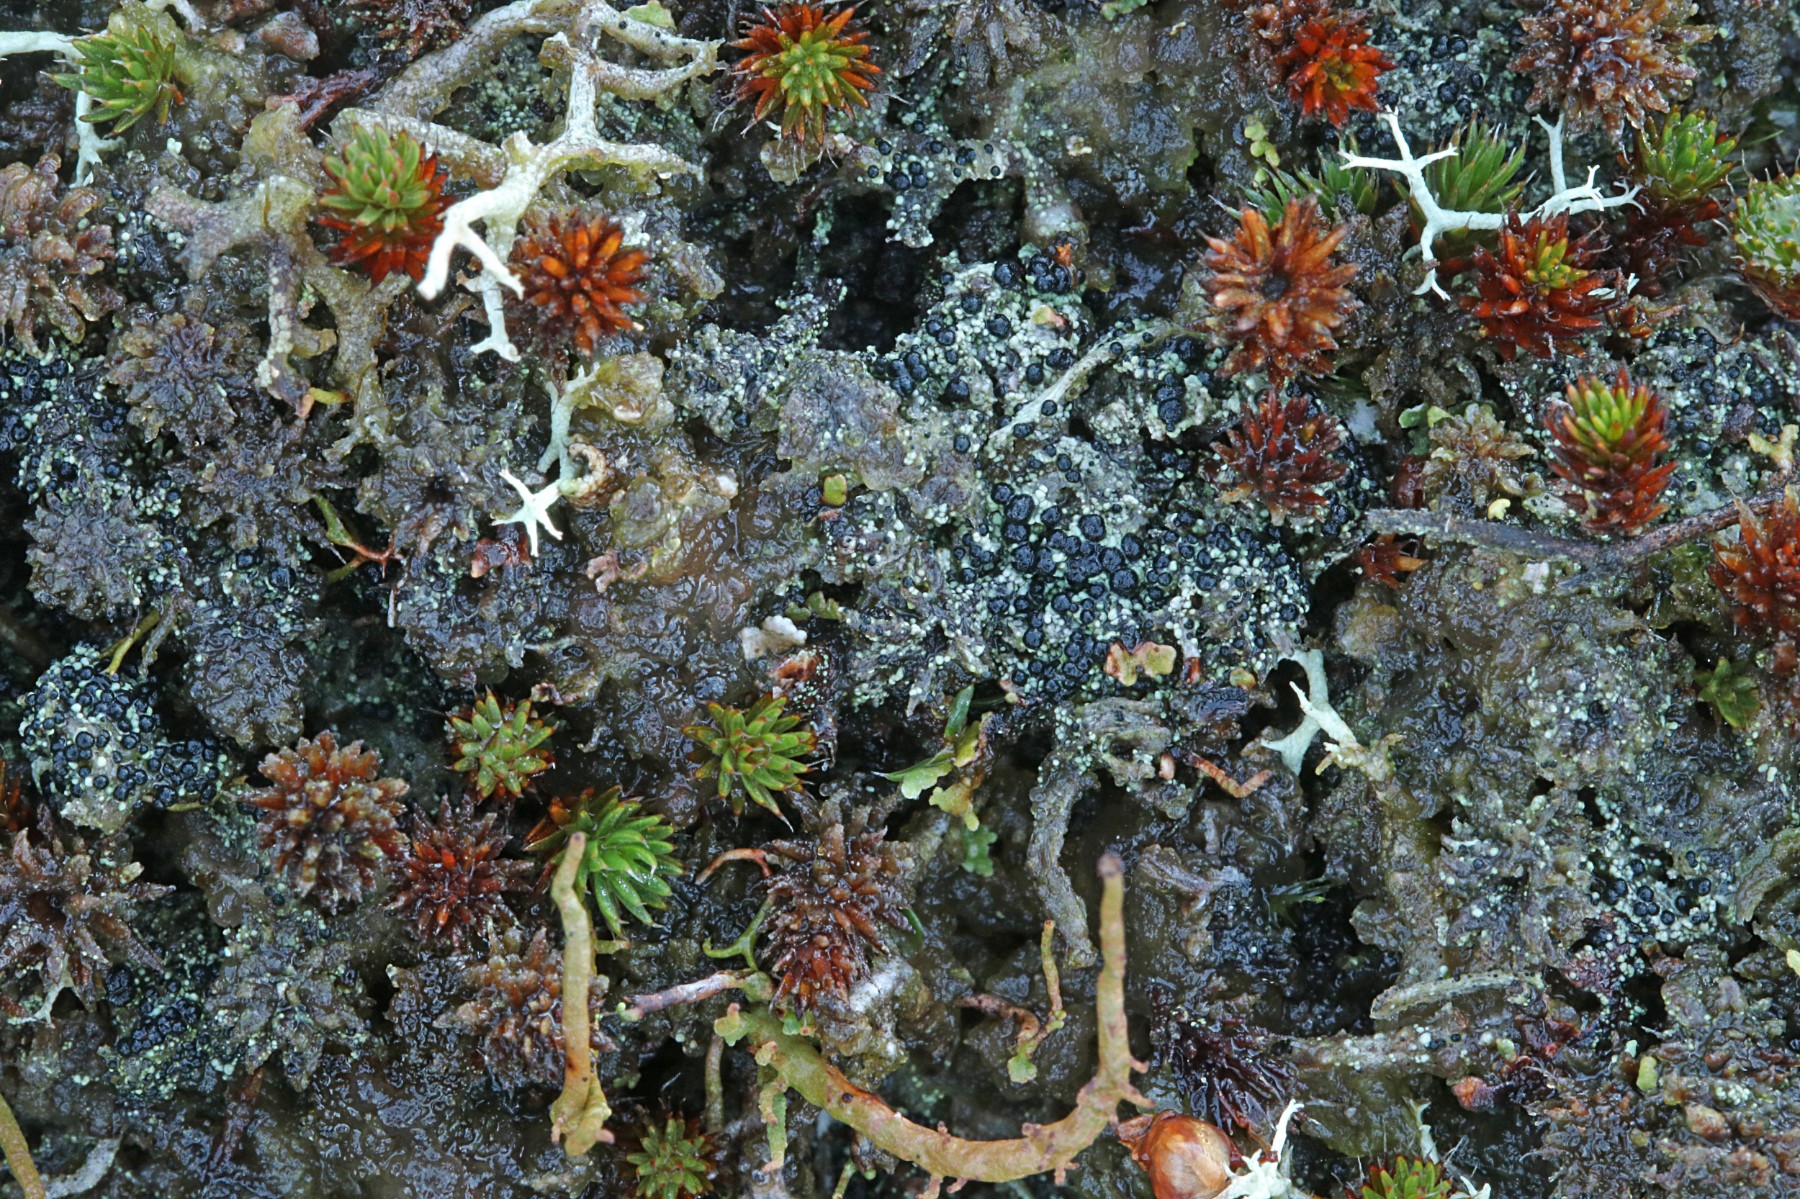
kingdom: Fungi
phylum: Ascomycota
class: Lecanoromycetes
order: Lecanorales
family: Byssolomataceae
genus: Micarea
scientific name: Micarea lignaria
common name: tørve-knaplav
